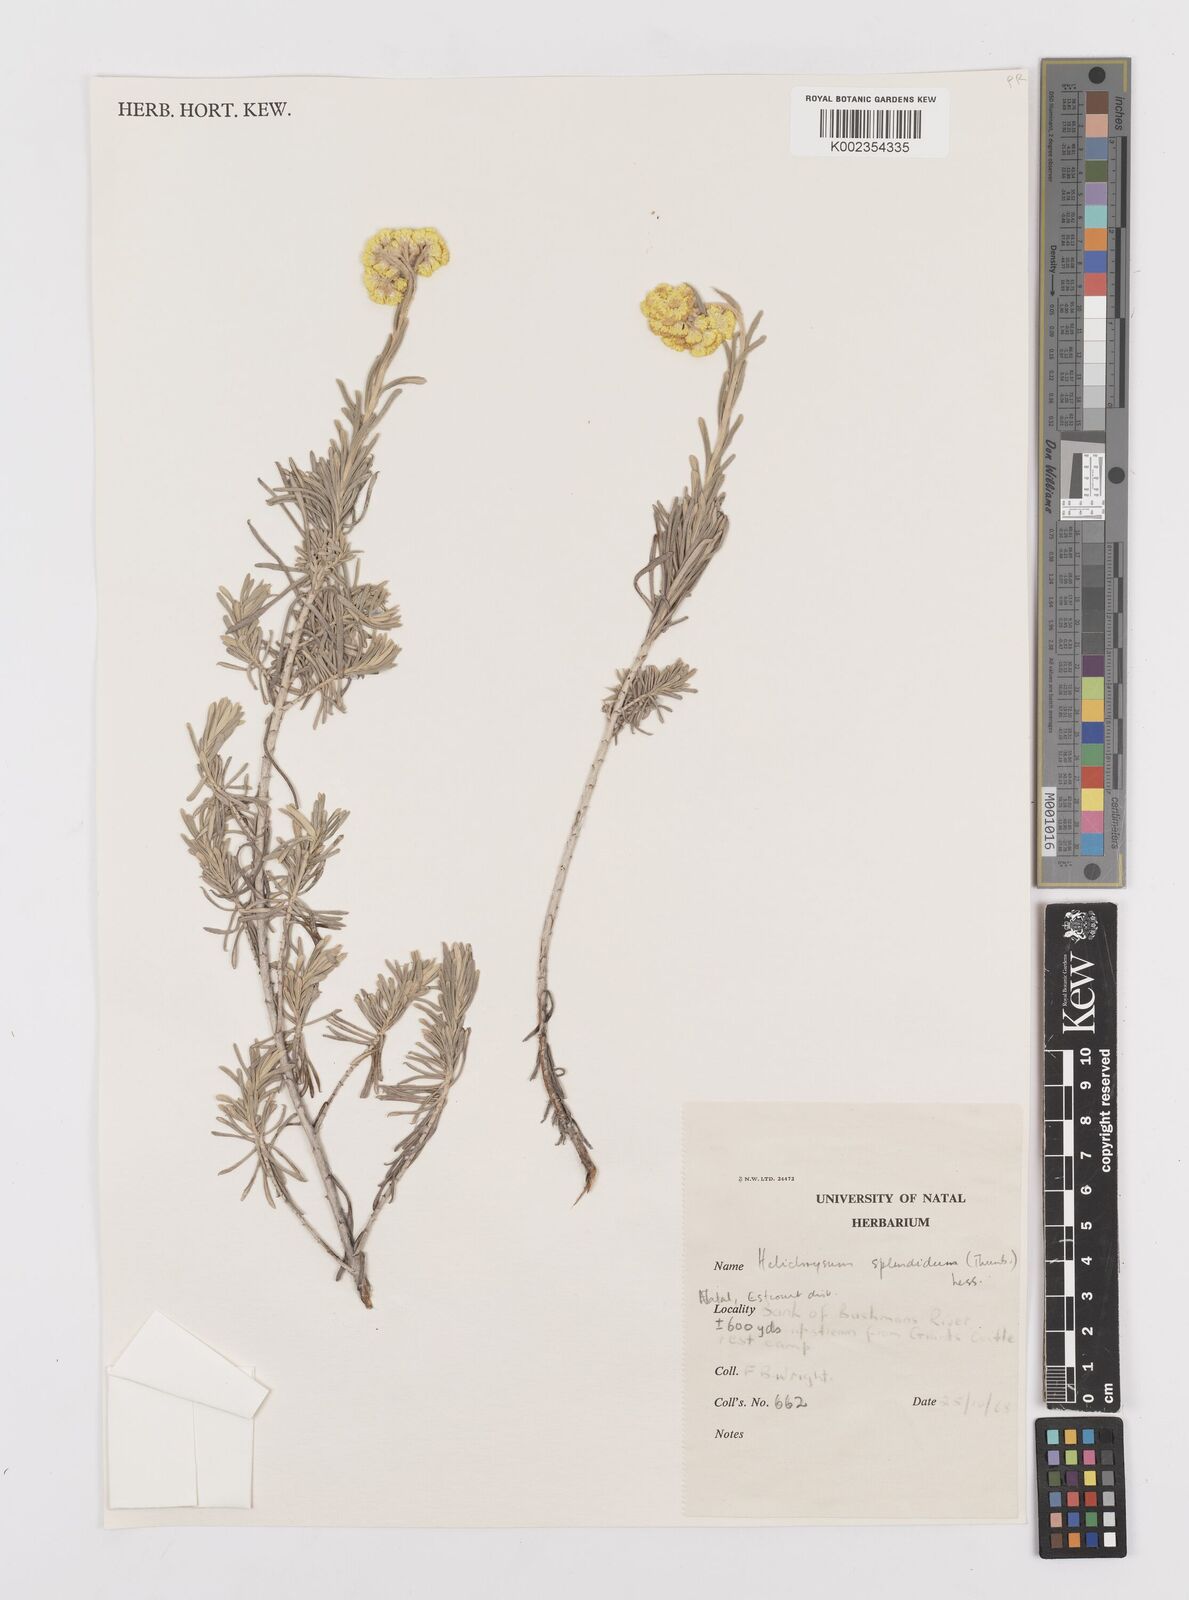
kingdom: Plantae
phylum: Tracheophyta
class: Magnoliopsida
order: Asterales
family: Asteraceae
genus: Helichrysum
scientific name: Helichrysum splendidum
